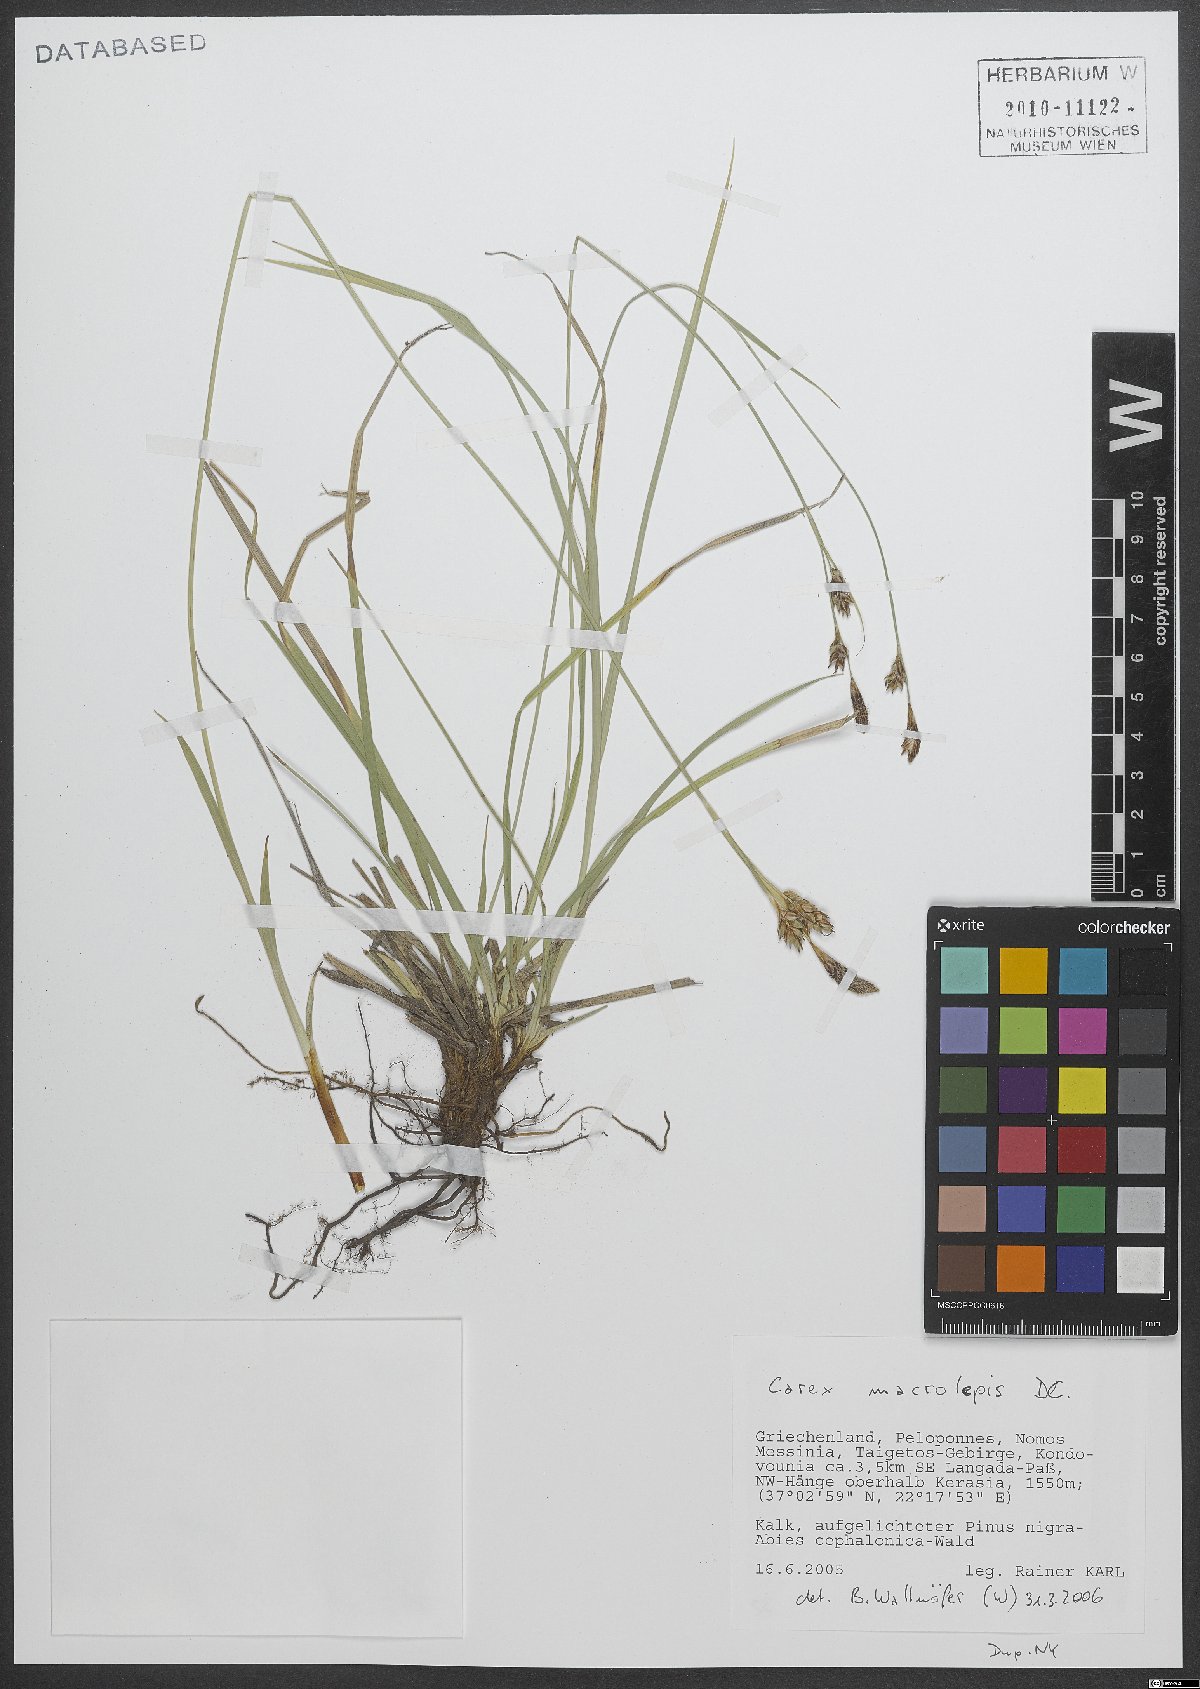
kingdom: Plantae
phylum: Tracheophyta
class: Liliopsida
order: Poales
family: Cyperaceae
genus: Carex
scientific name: Carex macrolepis
